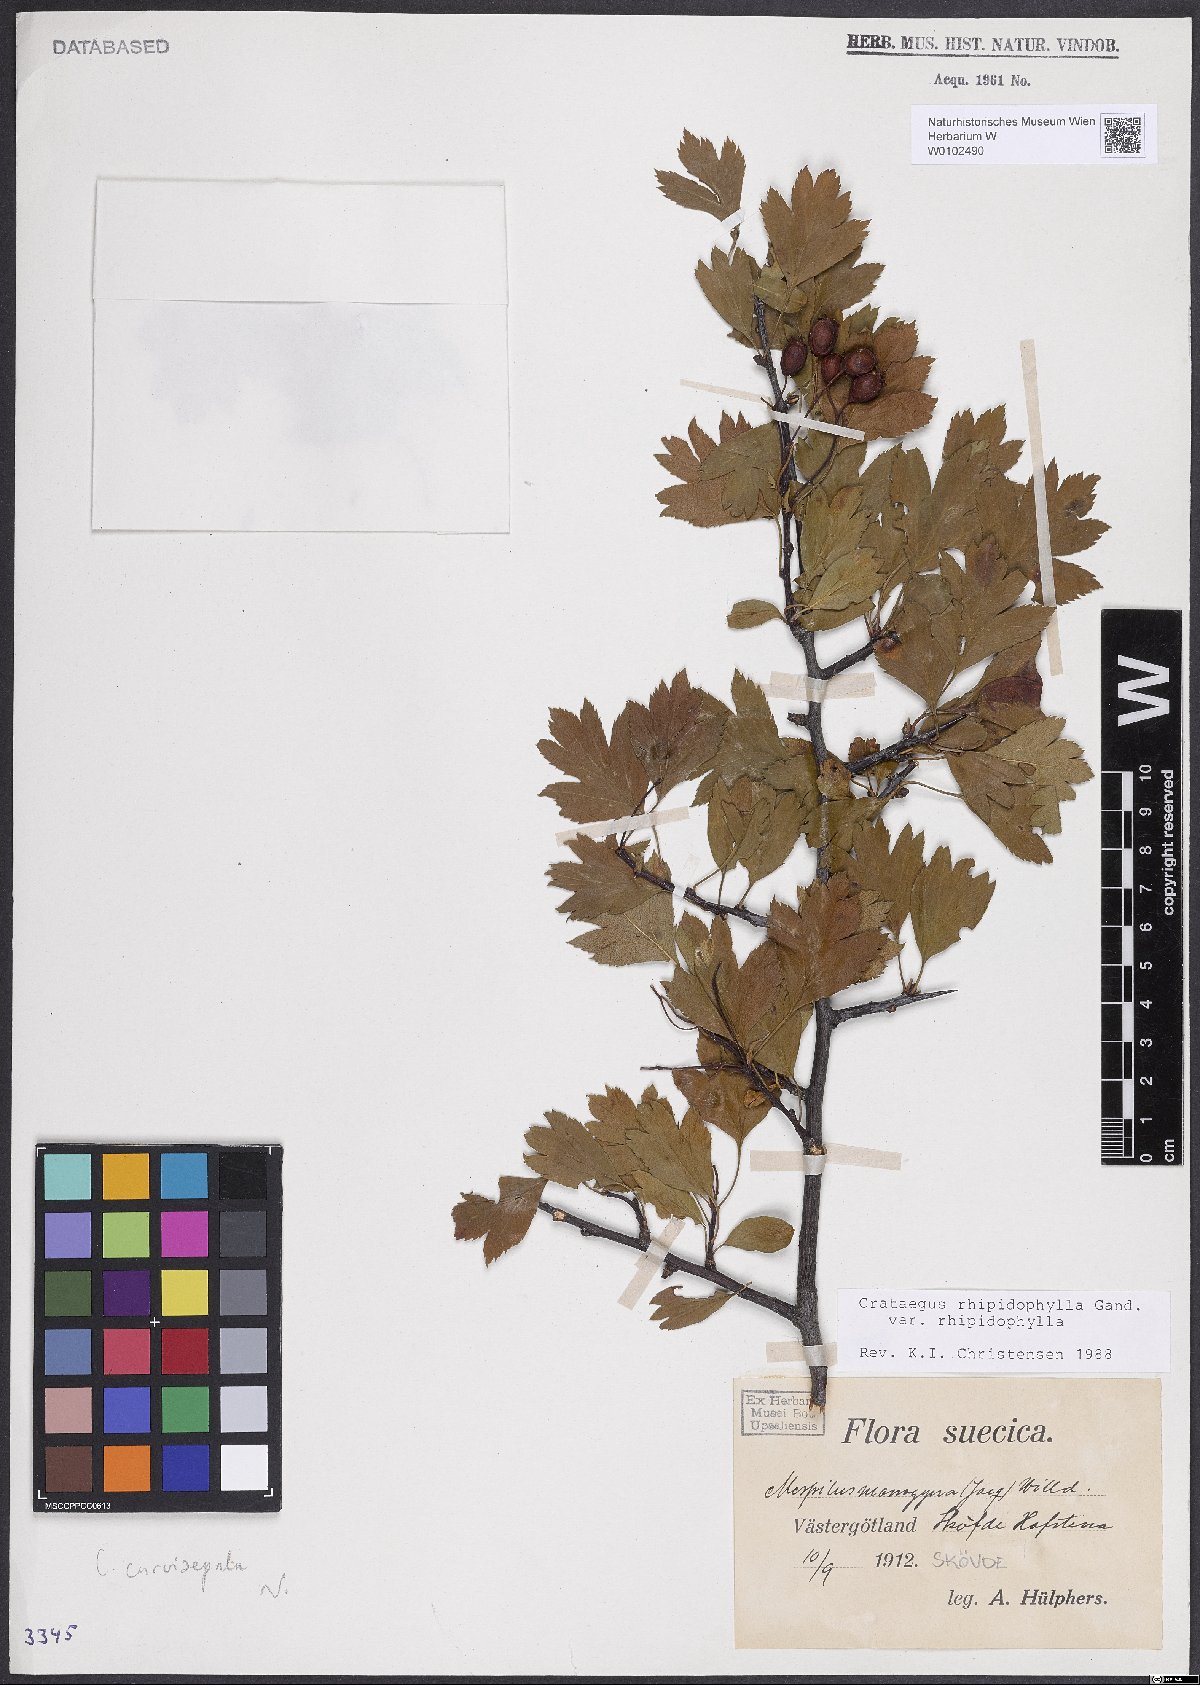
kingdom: Plantae
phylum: Tracheophyta
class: Magnoliopsida
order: Rosales
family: Rosaceae
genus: Crataegus
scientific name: Crataegus rhipidophylla
